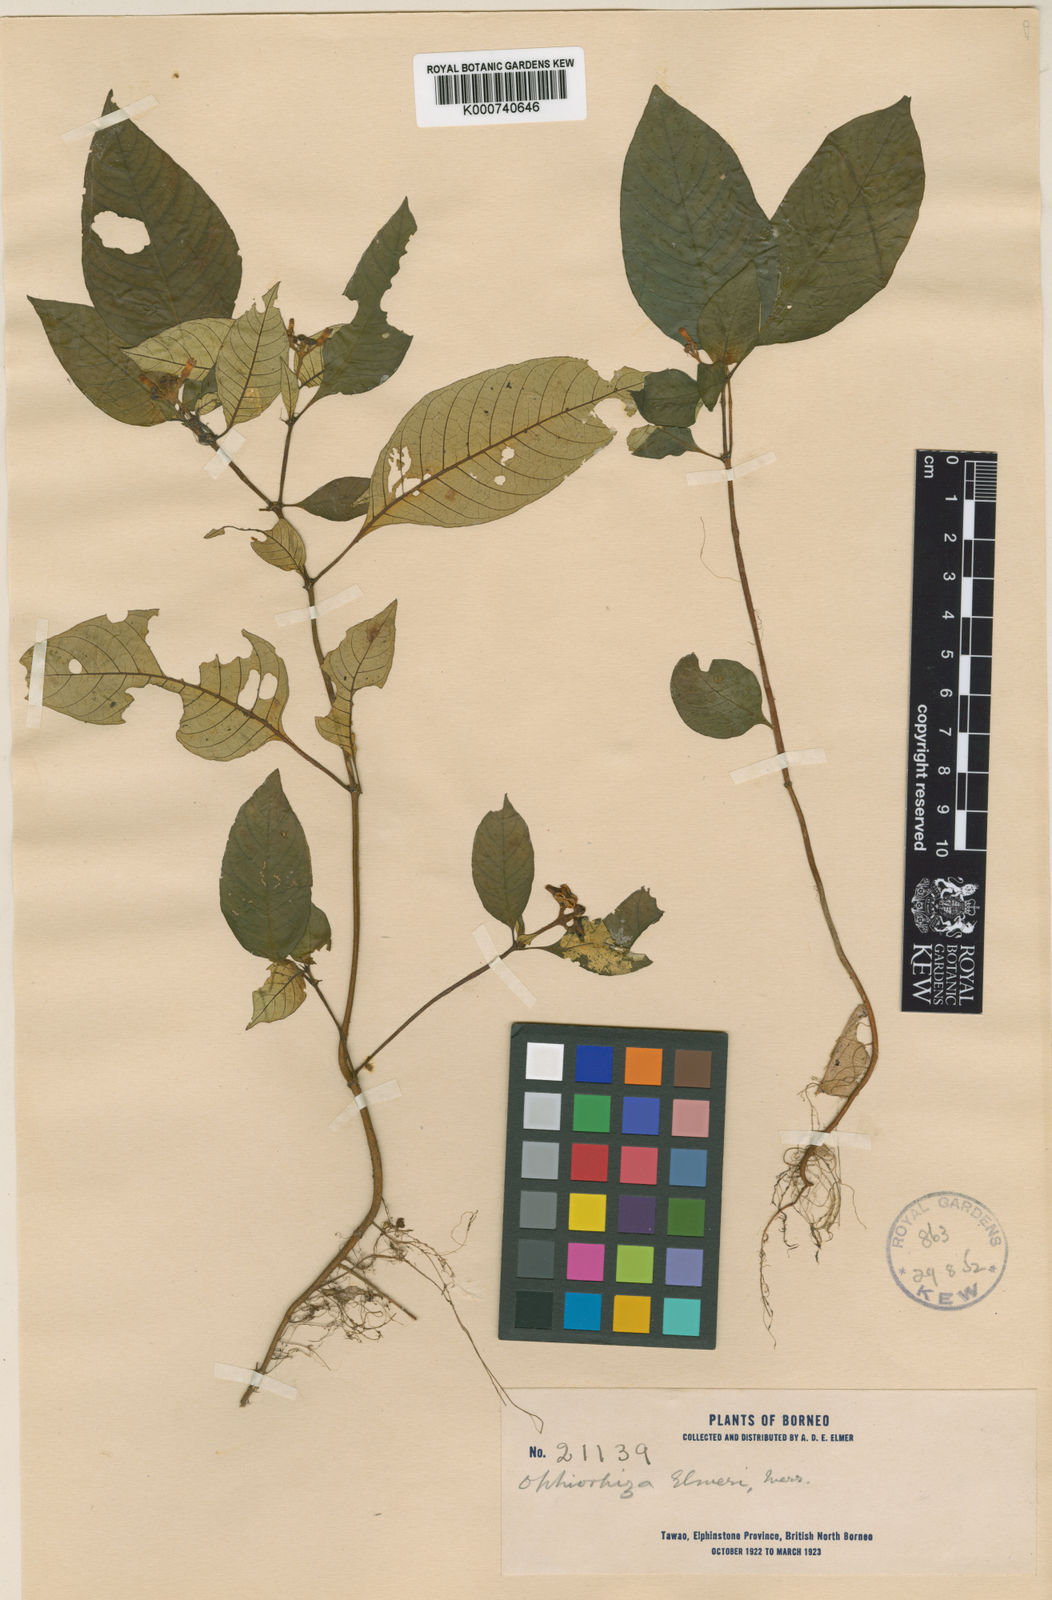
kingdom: Plantae
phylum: Tracheophyta
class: Magnoliopsida
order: Gentianales
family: Rubiaceae
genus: Ophiorrhiza
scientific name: Ophiorrhiza elmeri
